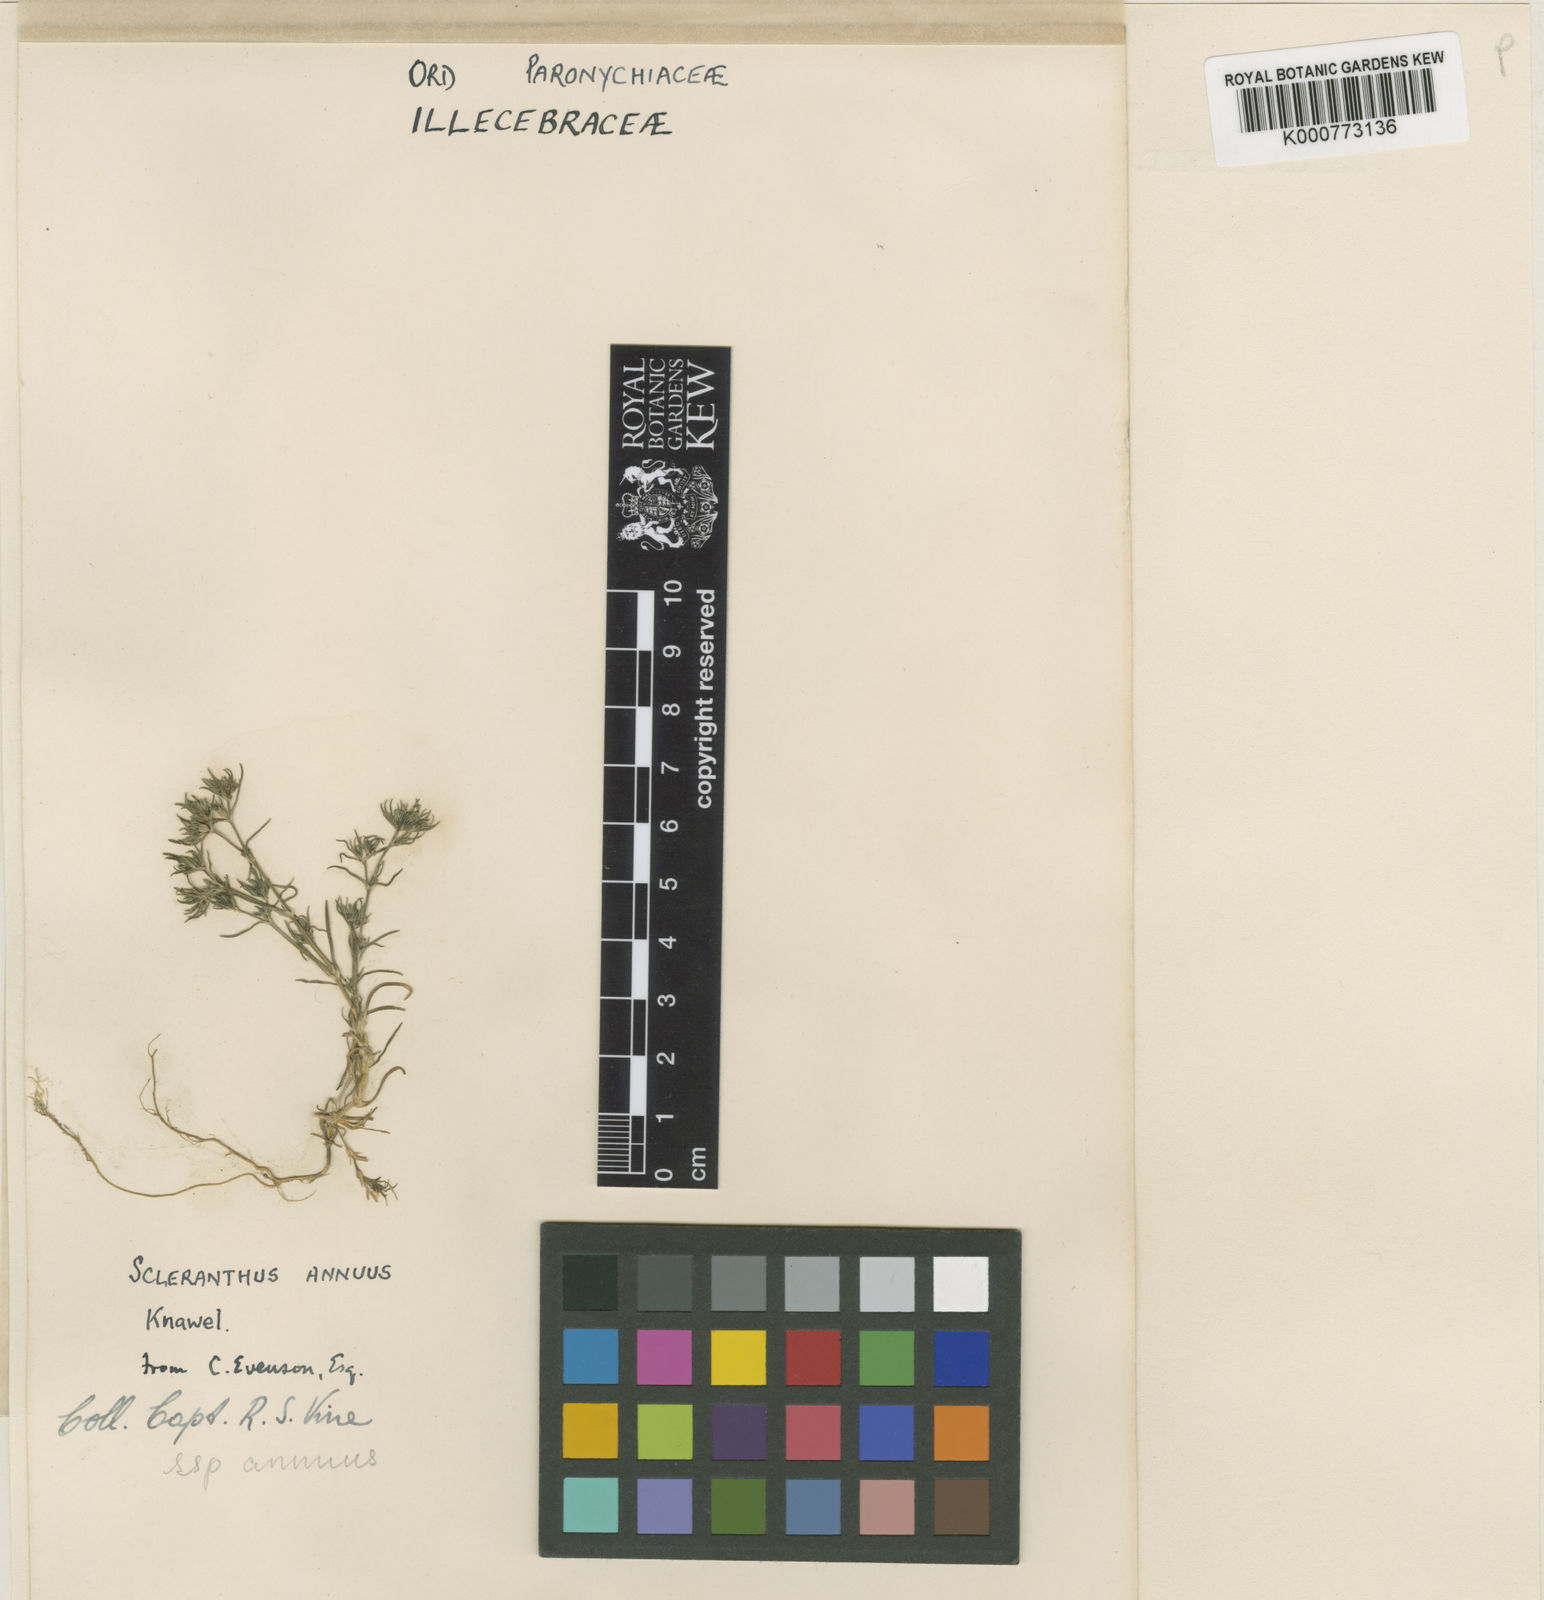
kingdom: Plantae
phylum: Tracheophyta
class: Magnoliopsida
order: Caryophyllales
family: Caryophyllaceae
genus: Scleranthus
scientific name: Scleranthus annuus
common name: Annual knawel
